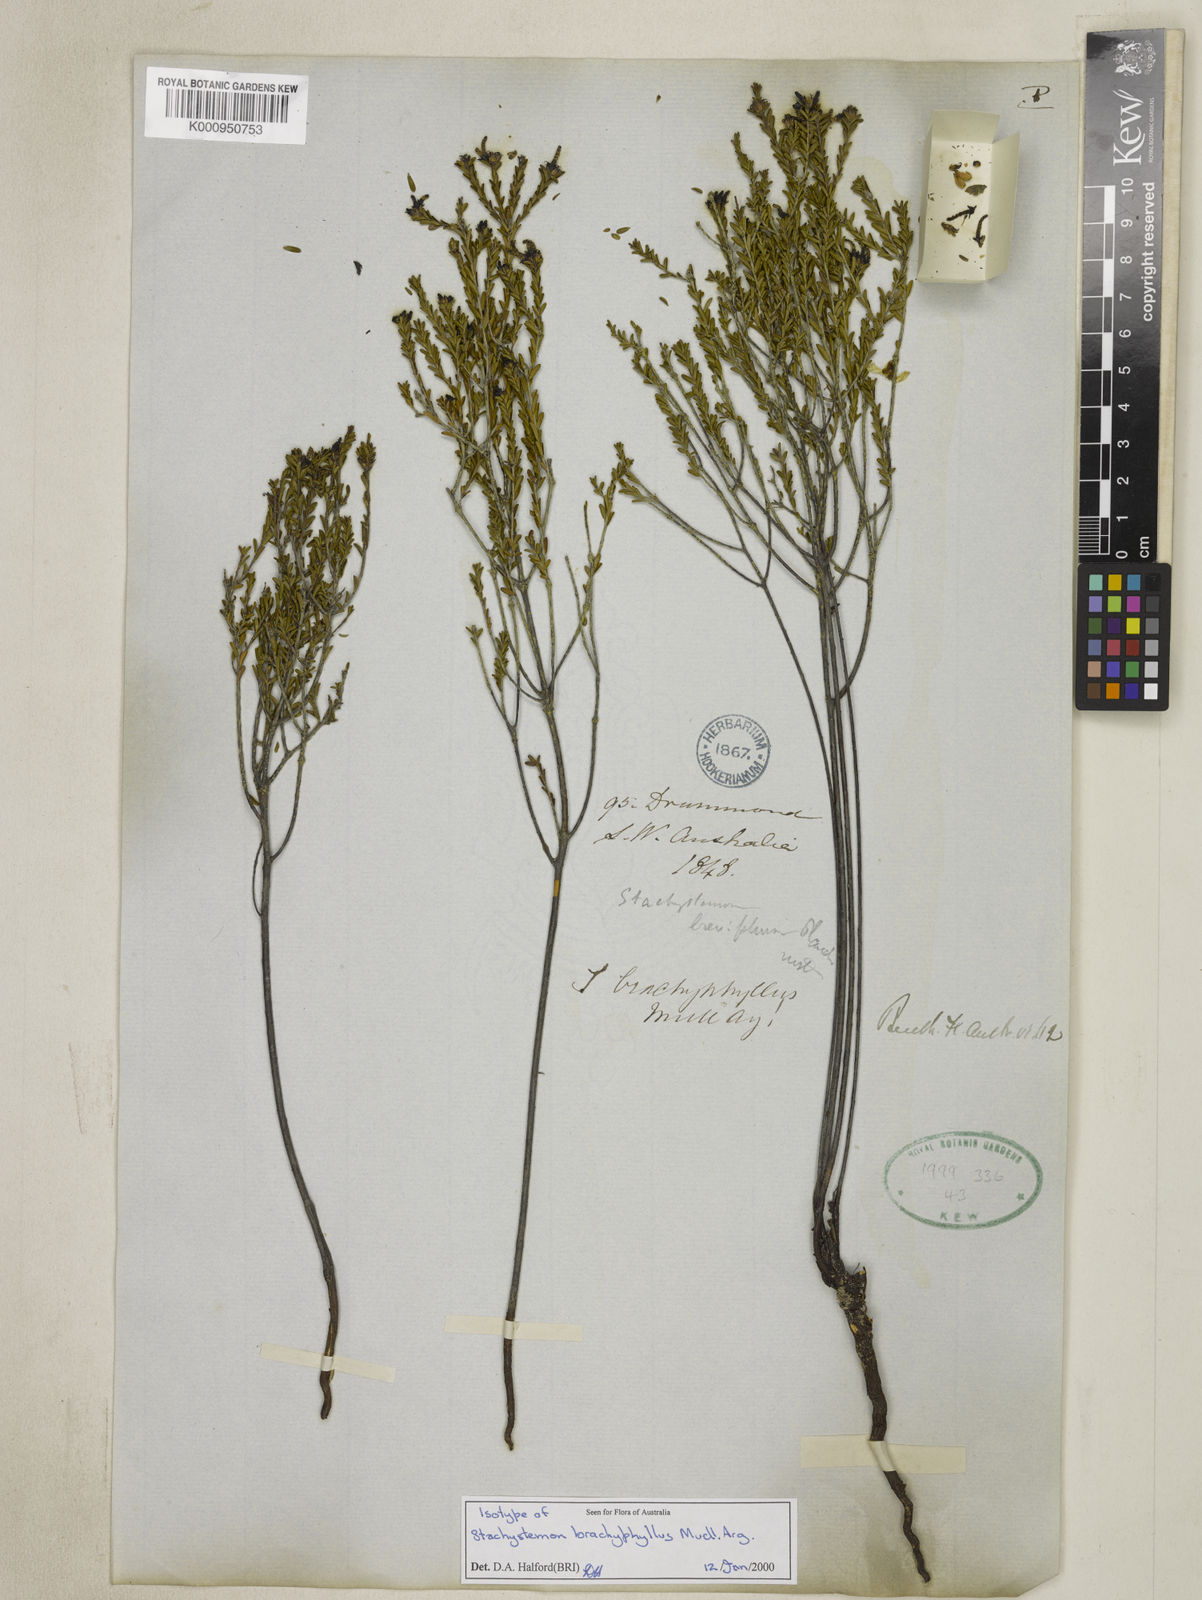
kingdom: Plantae
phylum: Tracheophyta
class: Magnoliopsida
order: Malpighiales
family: Picrodendraceae
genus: Stachystemon
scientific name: Stachystemon
